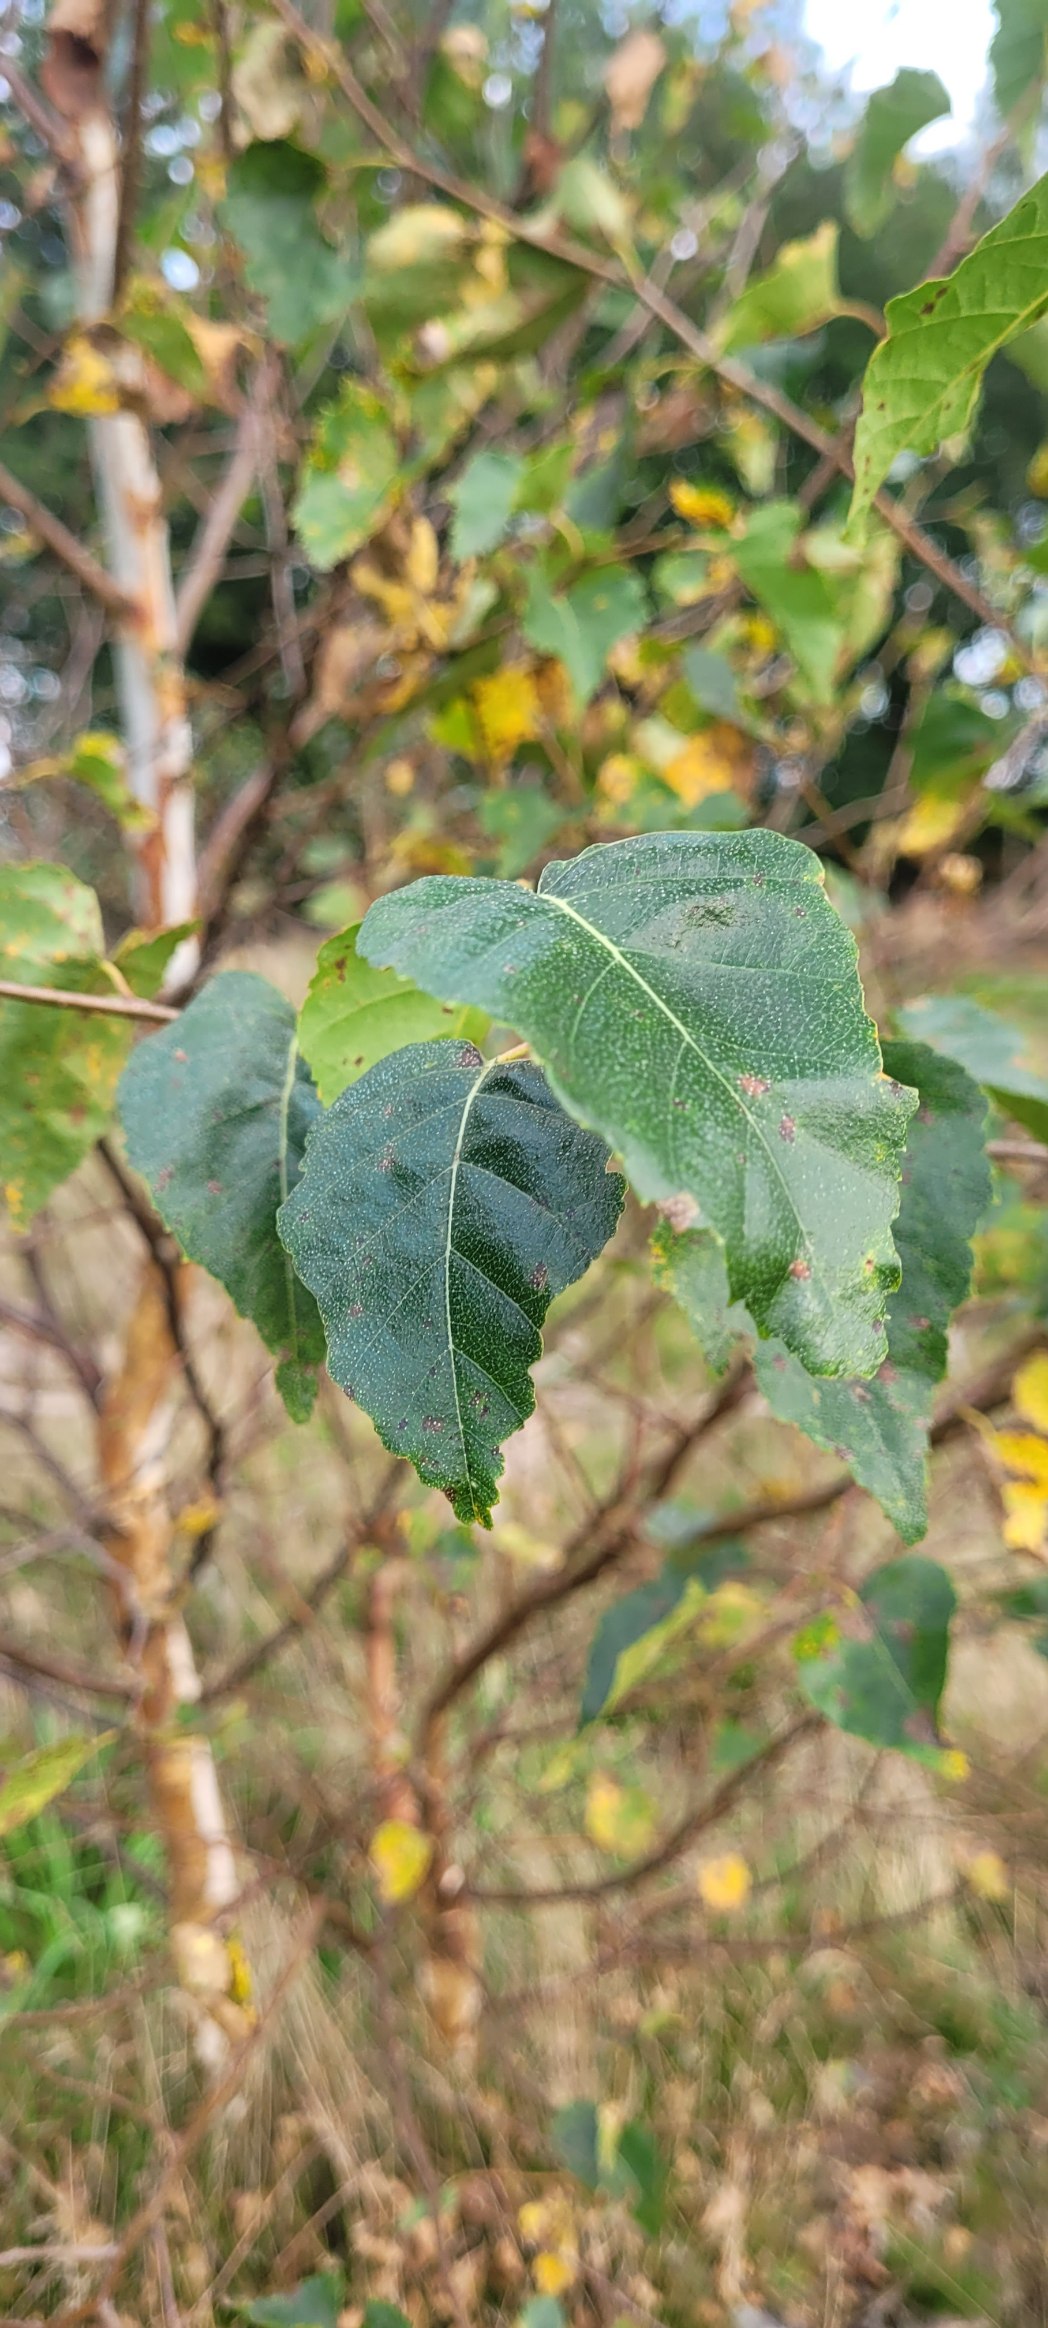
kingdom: Plantae
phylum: Tracheophyta
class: Magnoliopsida
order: Fagales
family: Betulaceae
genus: Betula
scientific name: Betula pendula
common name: Vorte-birk
